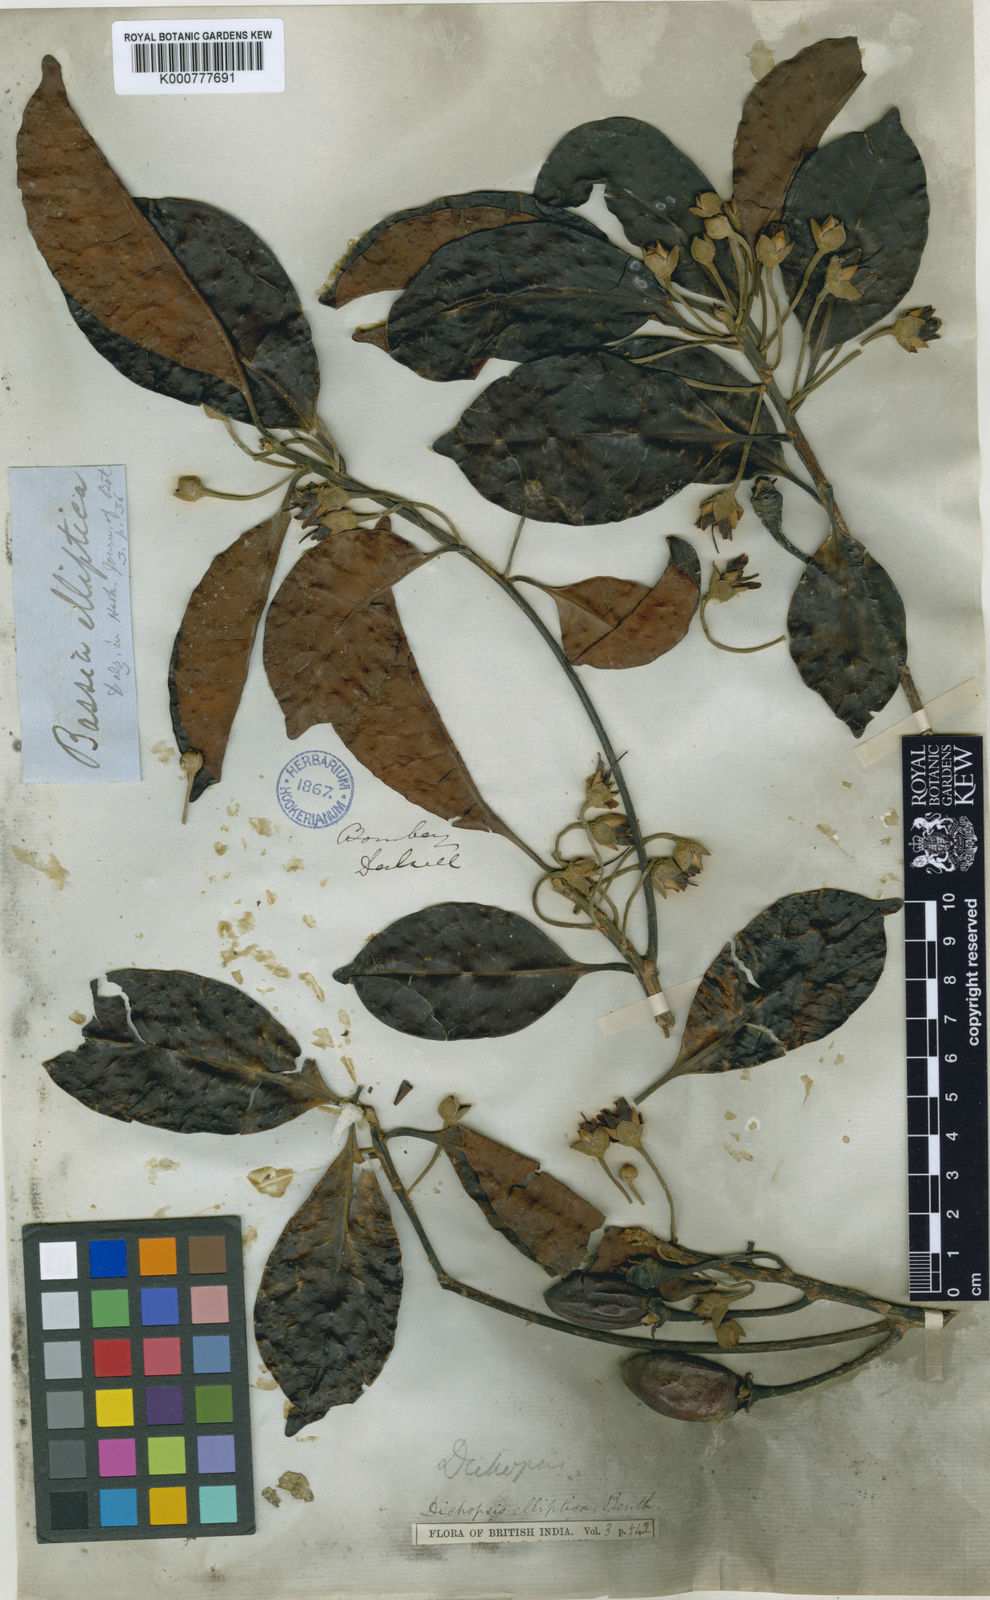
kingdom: Plantae
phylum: Tracheophyta
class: Magnoliopsida
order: Ericales
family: Sapotaceae
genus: Palaquium
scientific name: Palaquium ellipticum
